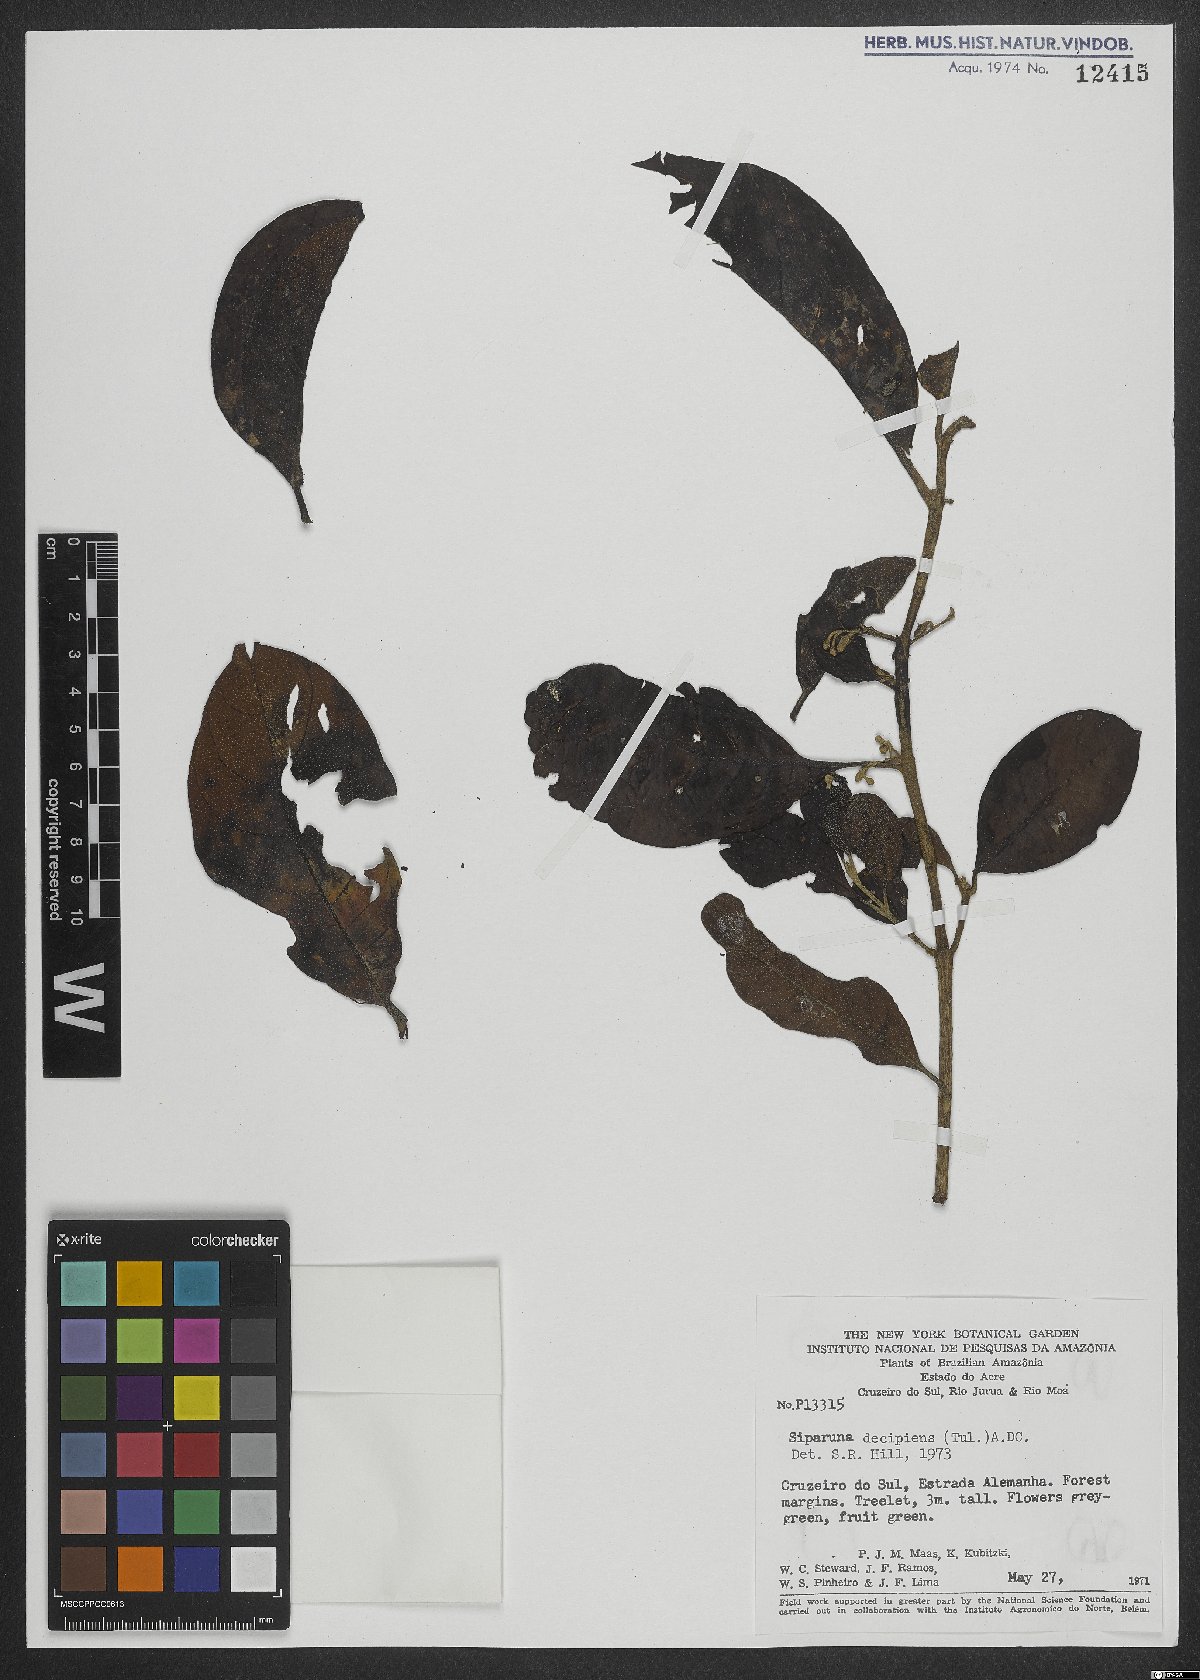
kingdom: Plantae
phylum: Tracheophyta
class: Magnoliopsida
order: Laurales
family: Siparunaceae
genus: Siparuna
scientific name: Siparuna decipiens
